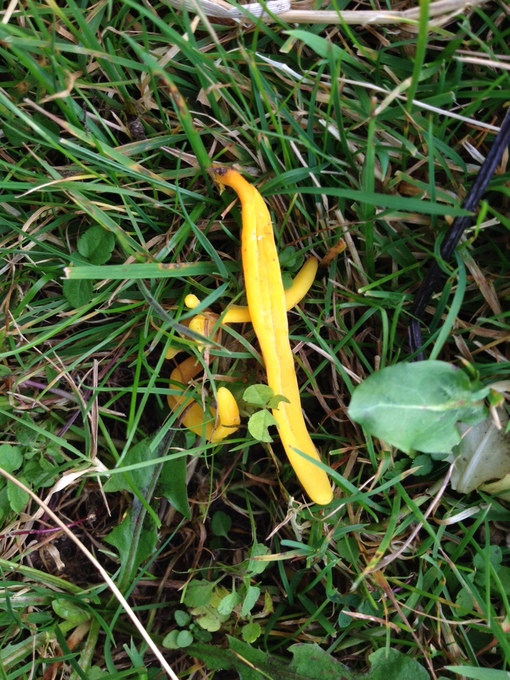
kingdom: Fungi
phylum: Basidiomycota
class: Agaricomycetes
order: Agaricales
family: Clavariaceae
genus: Clavulinopsis
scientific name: Clavulinopsis laeticolor
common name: flamme-køllesvamp
